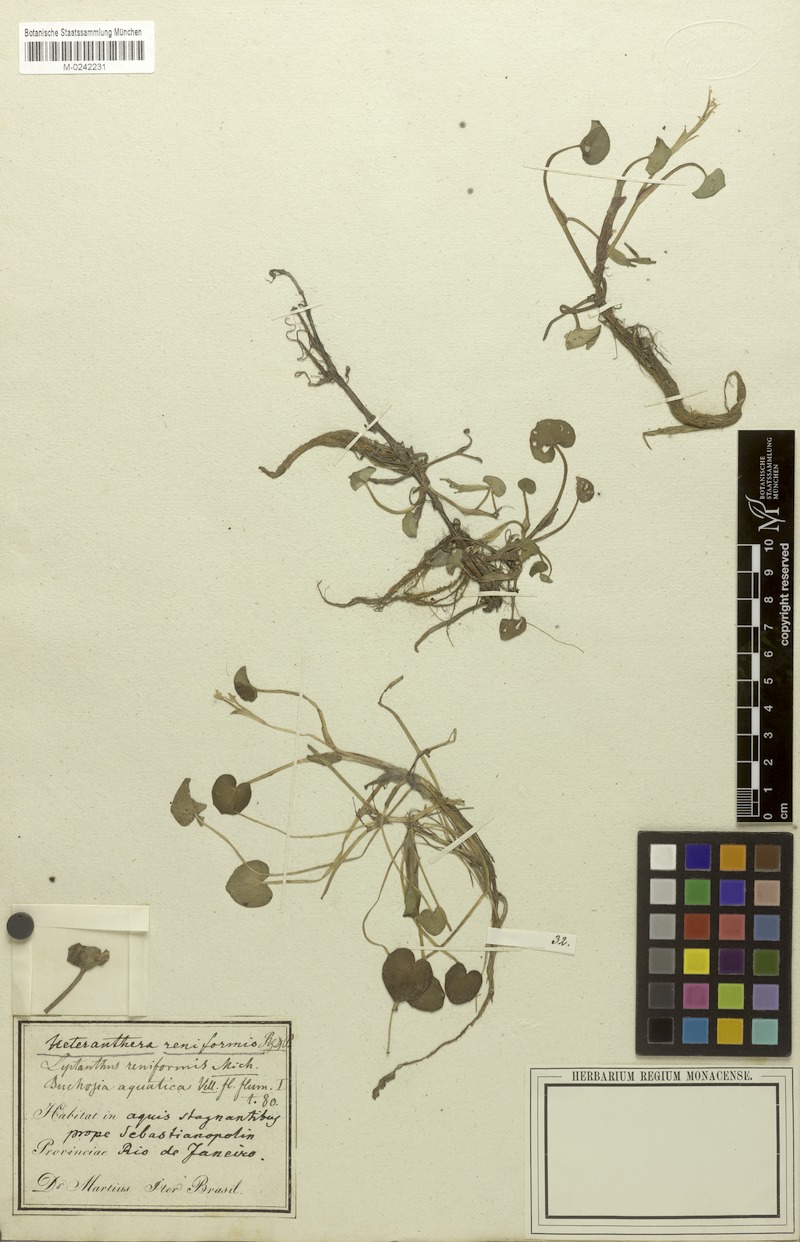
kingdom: Plantae
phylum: Tracheophyta
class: Liliopsida
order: Commelinales
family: Pontederiaceae
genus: Heteranthera
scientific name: Heteranthera reniformis
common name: Kidneyleaf mudplantain
